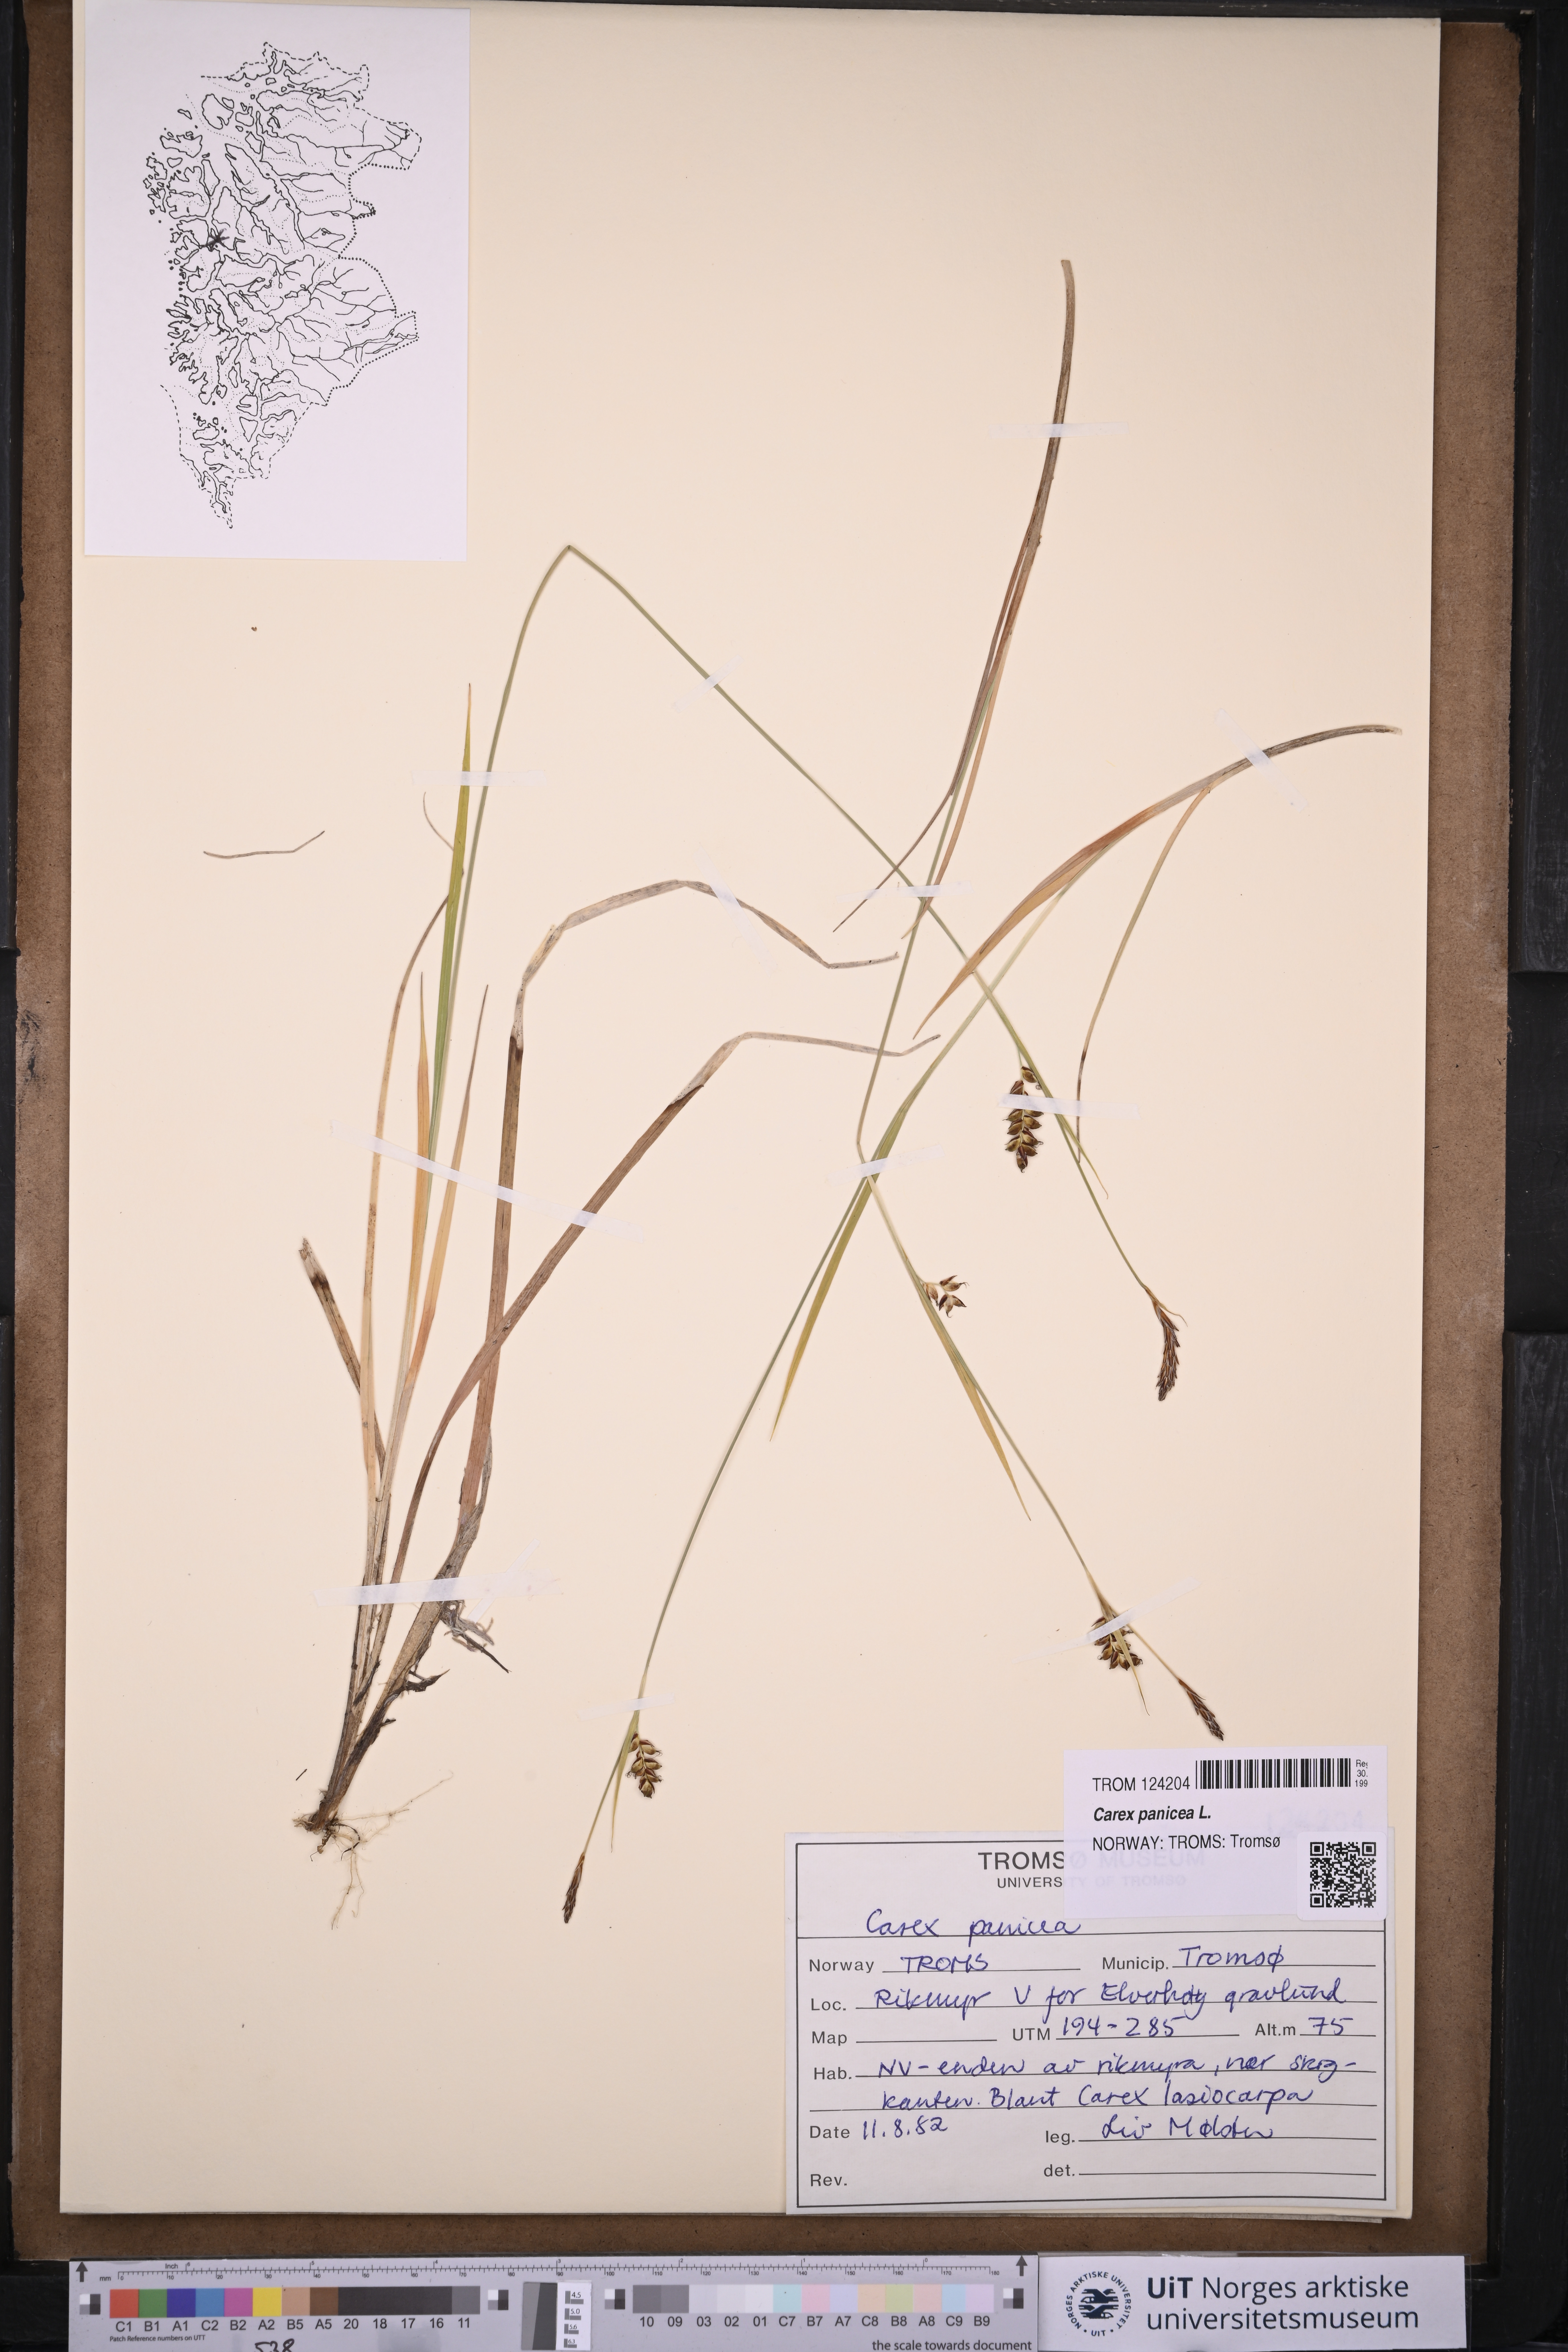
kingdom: Plantae
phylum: Tracheophyta
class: Liliopsida
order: Poales
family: Cyperaceae
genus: Carex
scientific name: Carex panicea
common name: Carnation sedge
